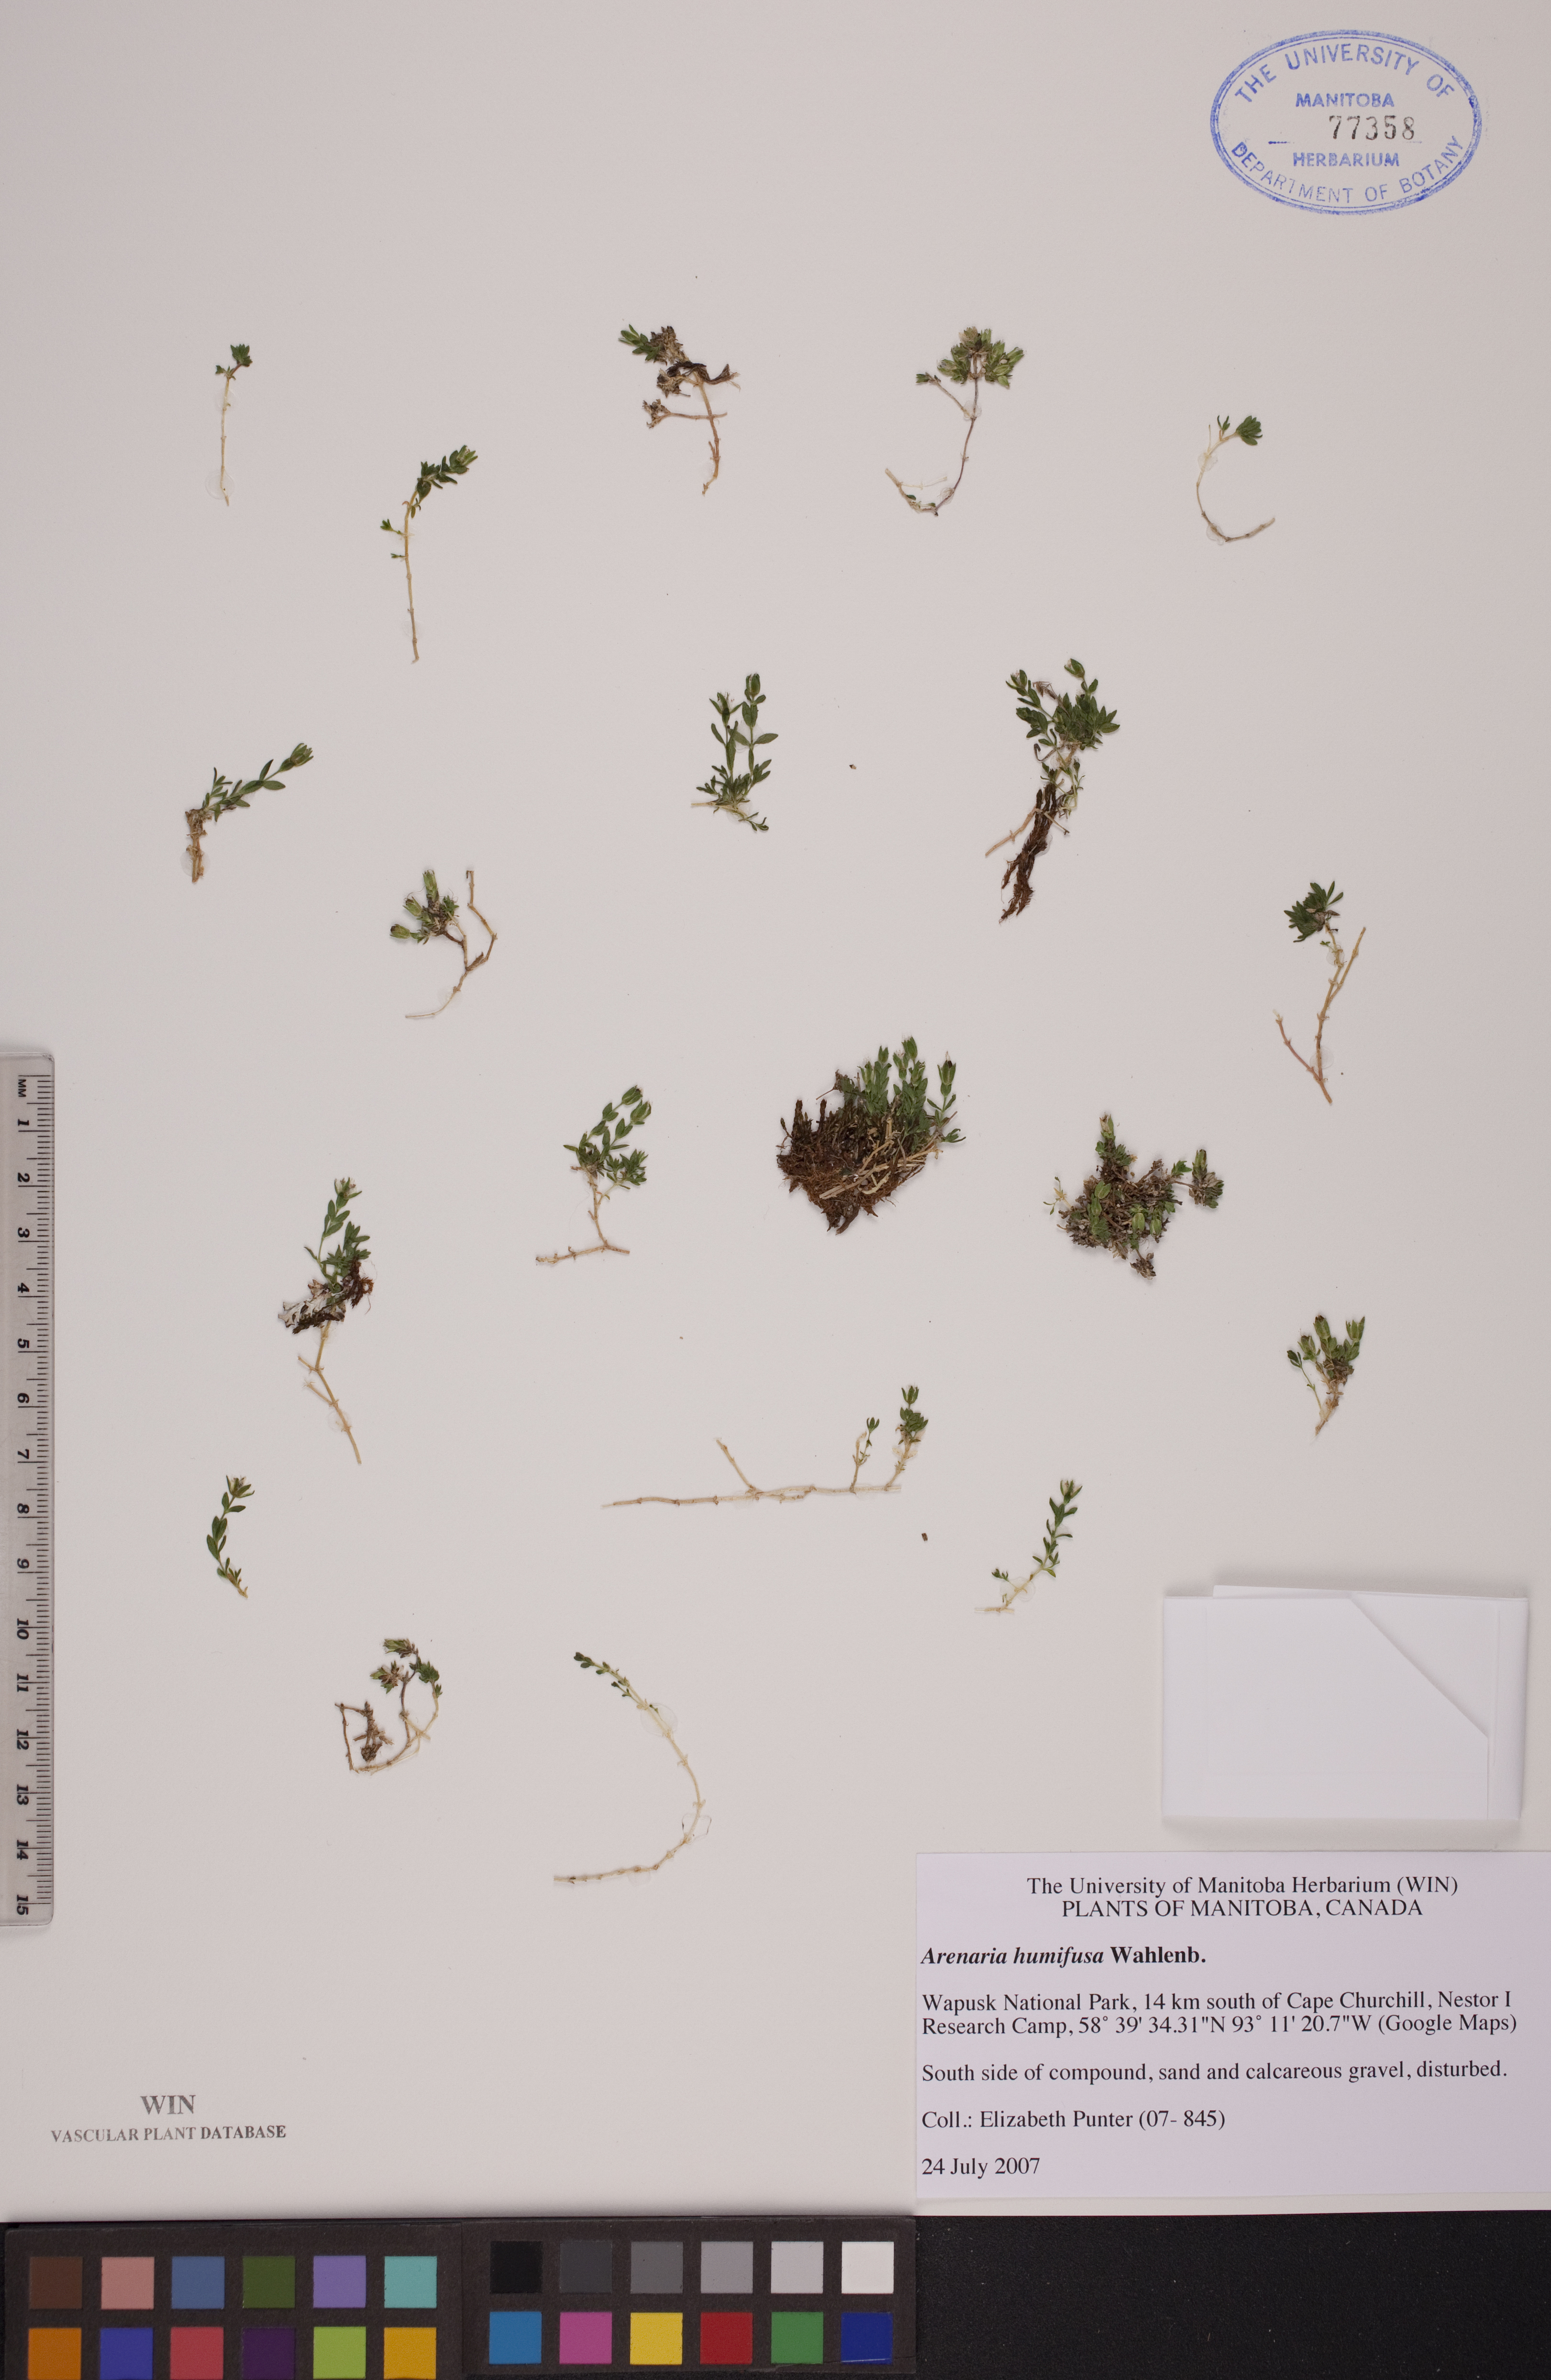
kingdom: Plantae
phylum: Tracheophyta
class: Magnoliopsida
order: Caryophyllales
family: Caryophyllaceae
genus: Arenaria
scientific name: Arenaria humifusa
